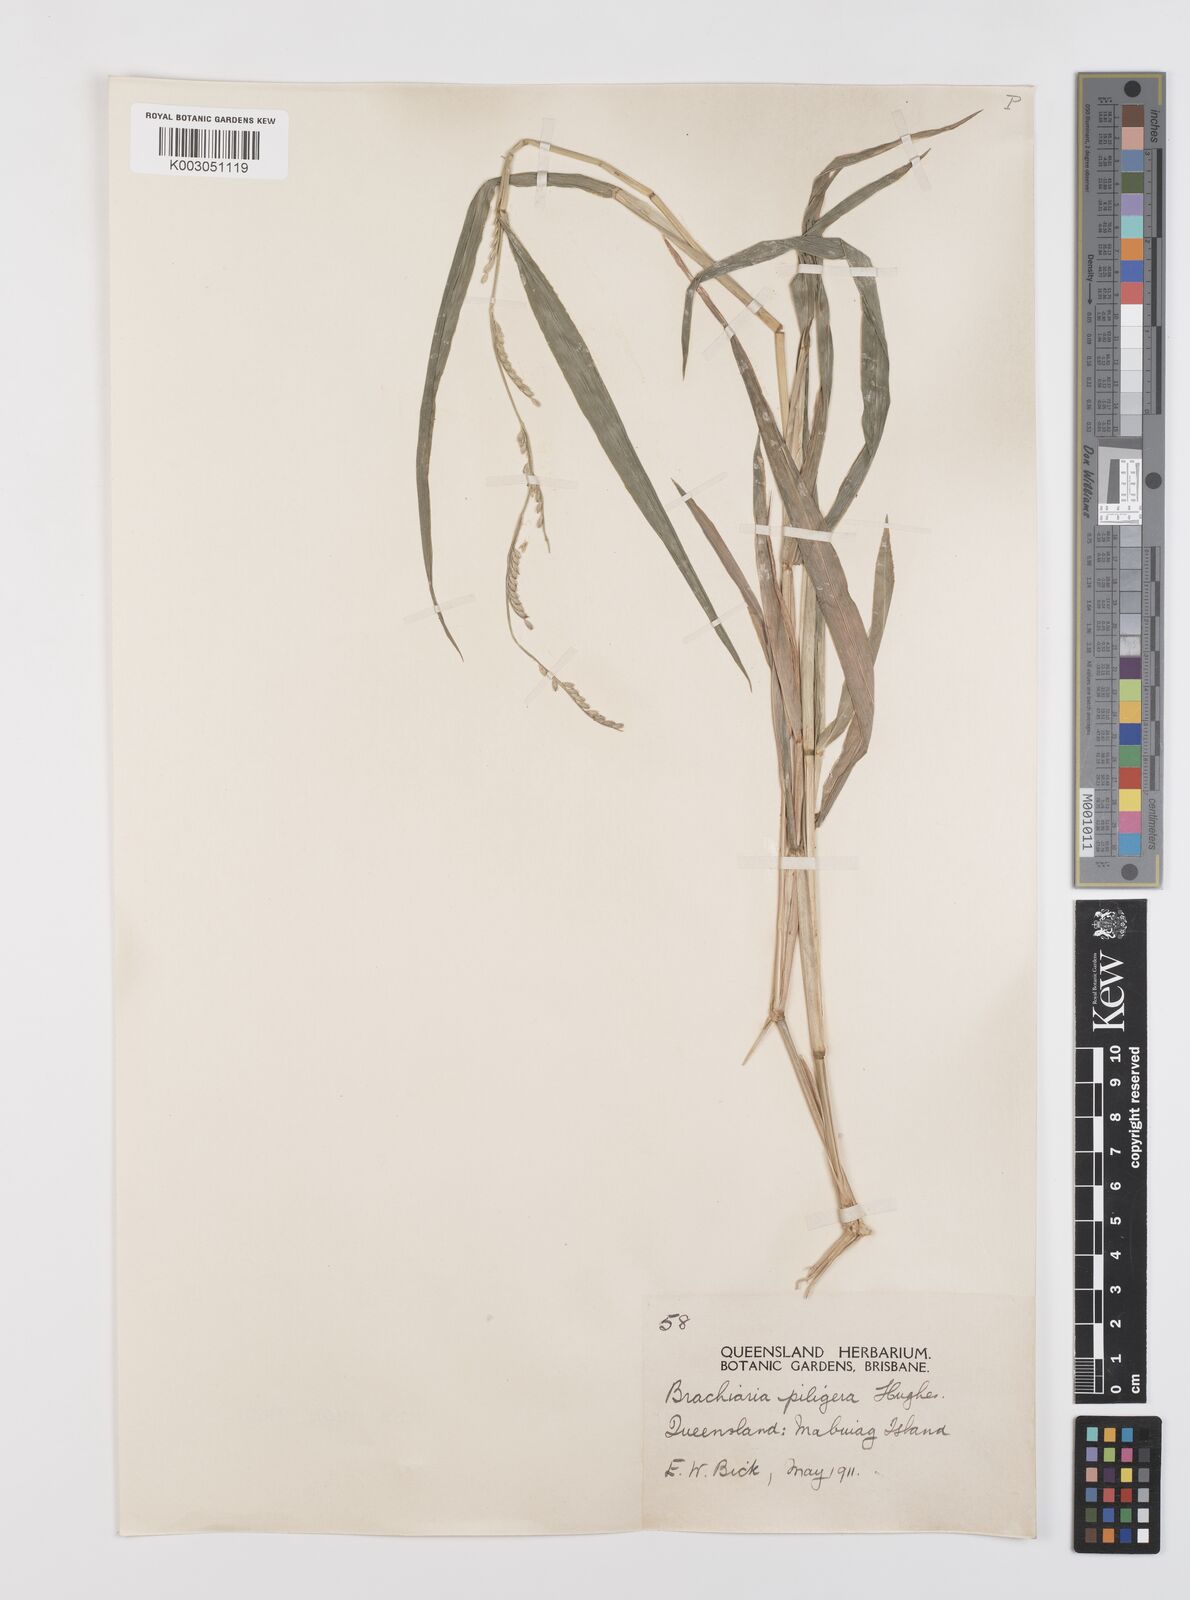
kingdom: Plantae
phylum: Tracheophyta
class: Liliopsida
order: Poales
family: Poaceae
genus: Urochloa
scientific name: Urochloa piligera
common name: Wattle signalgrass
